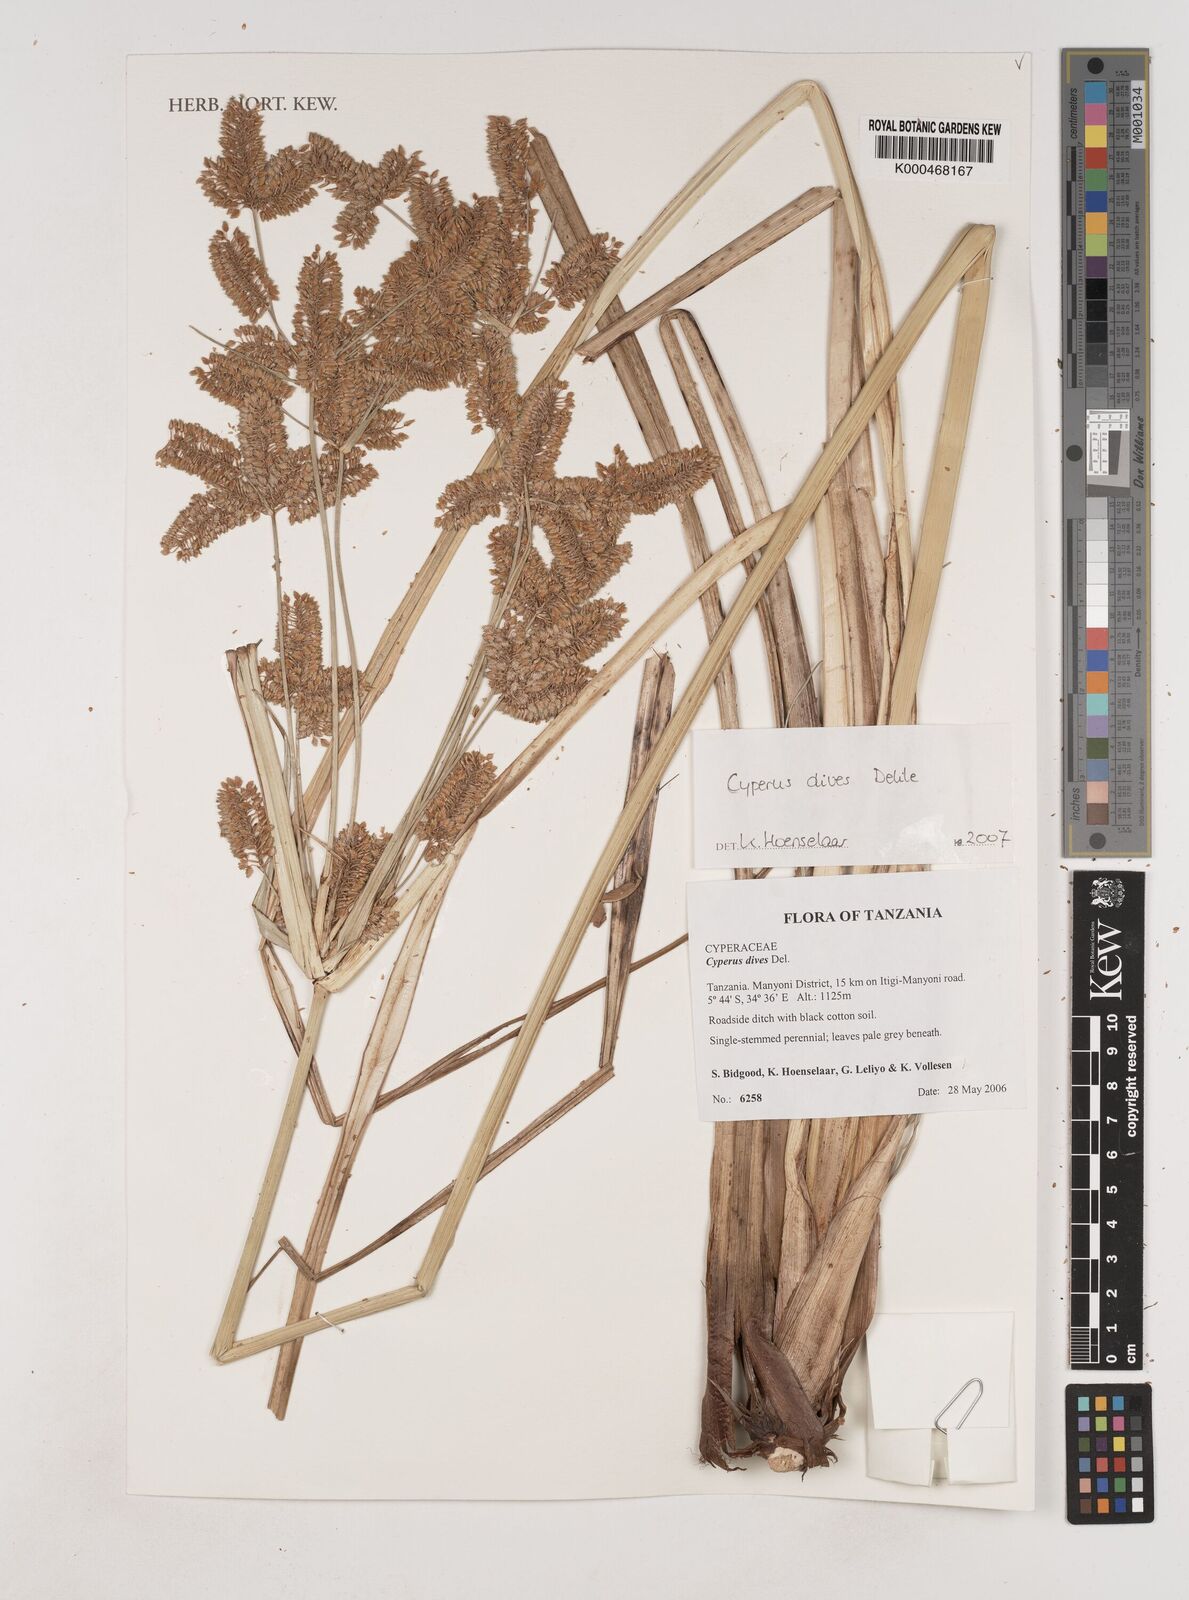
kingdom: Plantae
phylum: Tracheophyta
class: Liliopsida
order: Poales
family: Cyperaceae
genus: Cyperus
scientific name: Cyperus dives
